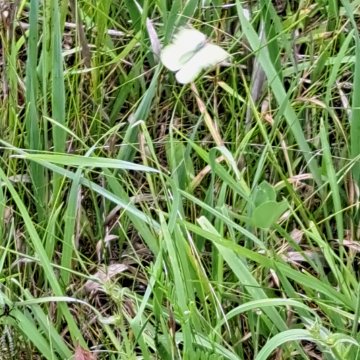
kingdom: Animalia
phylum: Arthropoda
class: Insecta
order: Lepidoptera
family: Pieridae
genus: Colias
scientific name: Colias
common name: Clouded Yellows
